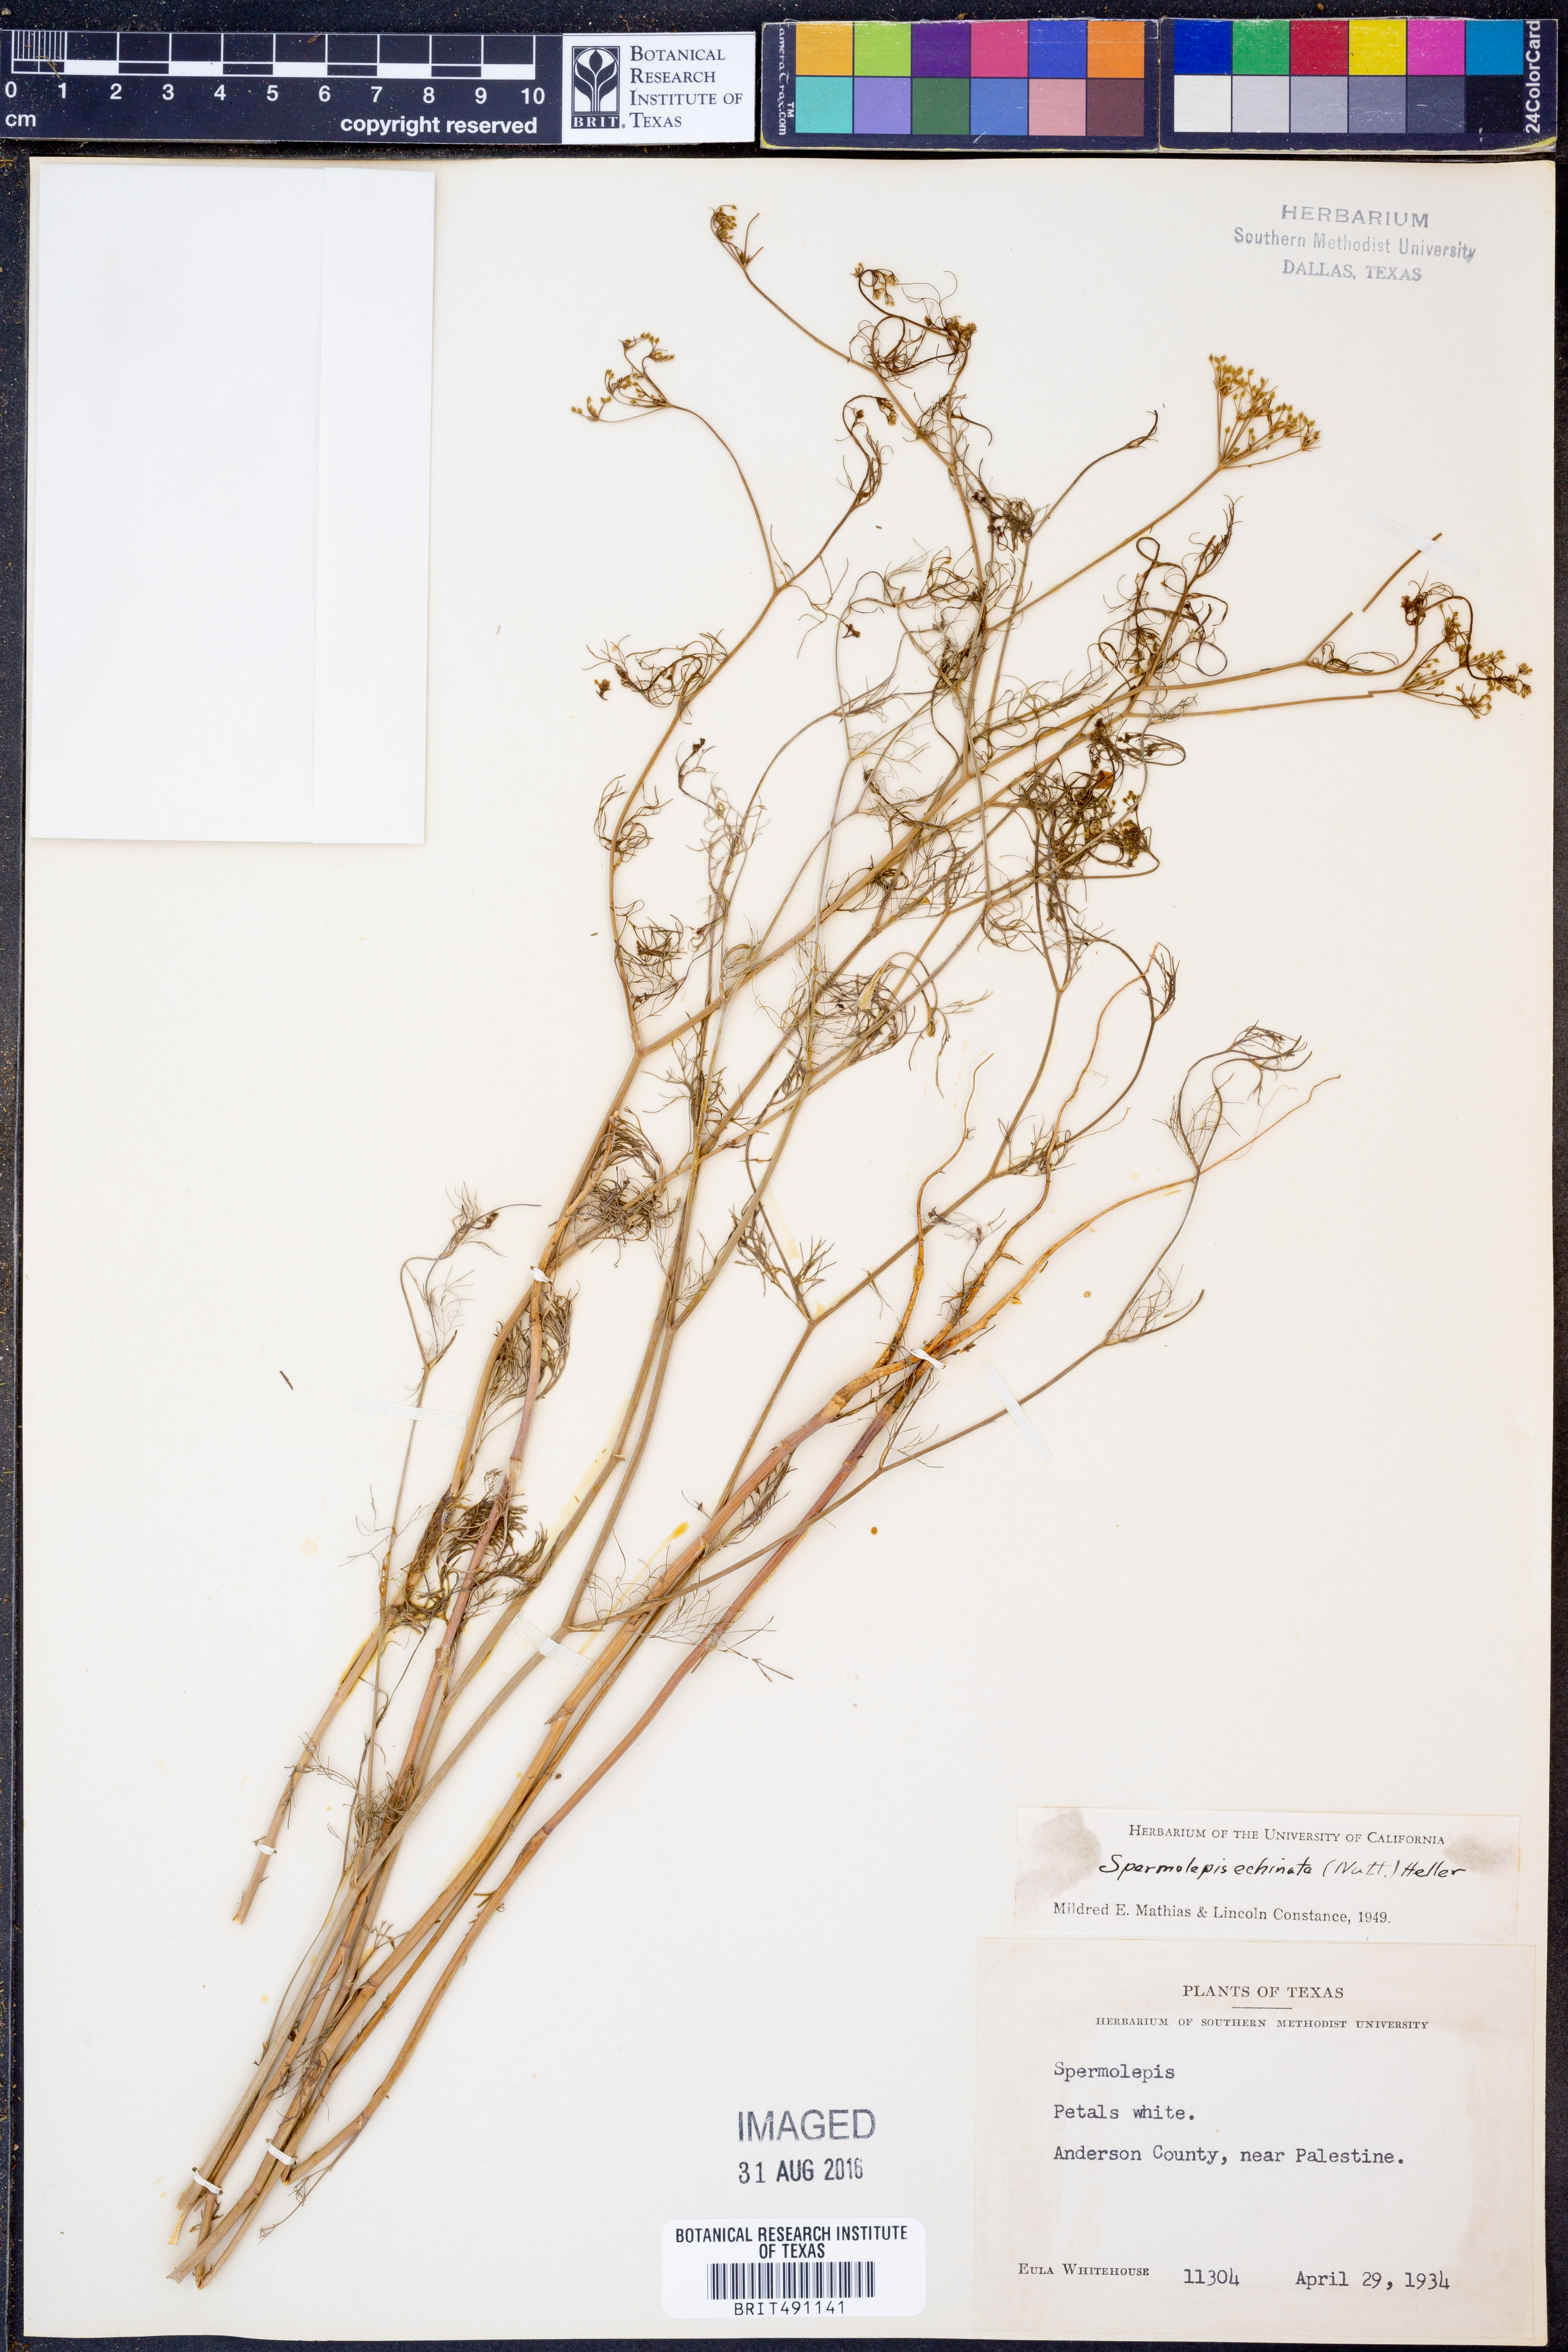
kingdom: Plantae
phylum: Tracheophyta
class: Magnoliopsida
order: Apiales
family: Apiaceae
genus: Spermolepis
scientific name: Spermolepis echinata
